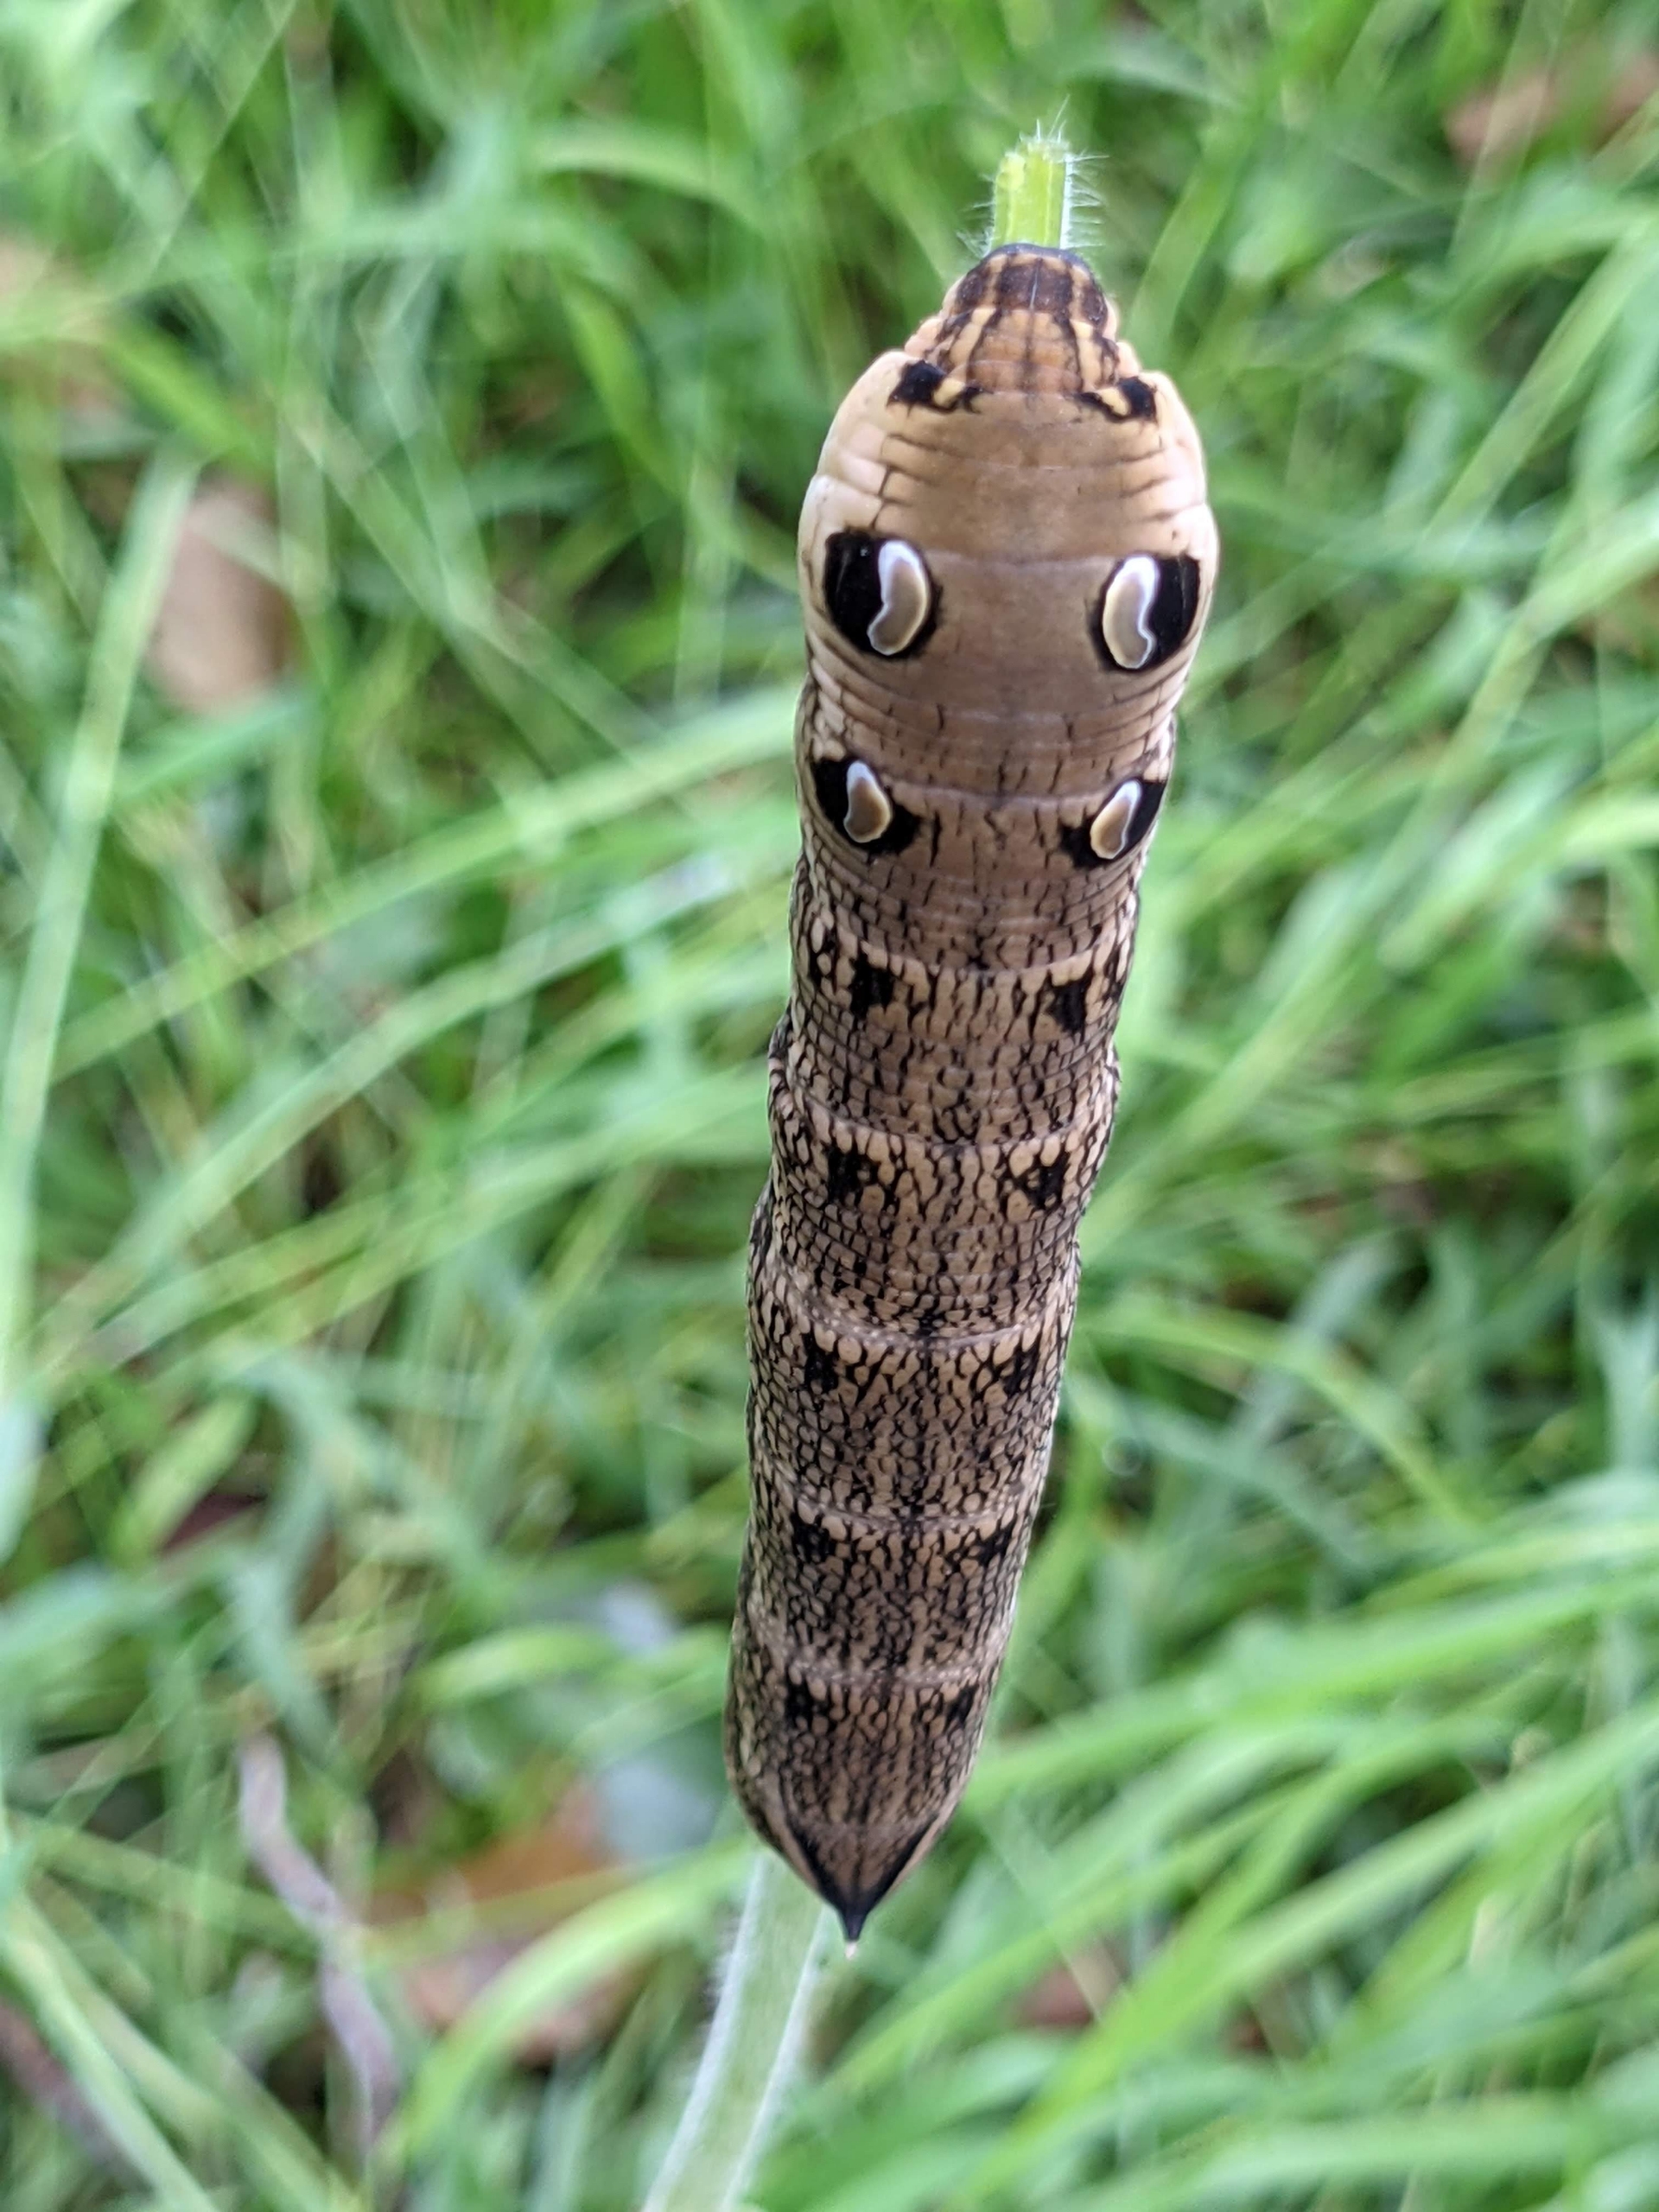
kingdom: Animalia
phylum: Arthropoda
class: Insecta
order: Lepidoptera
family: Sphingidae
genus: Deilephila
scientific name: Deilephila elpenor
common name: Dueurtsværmer
